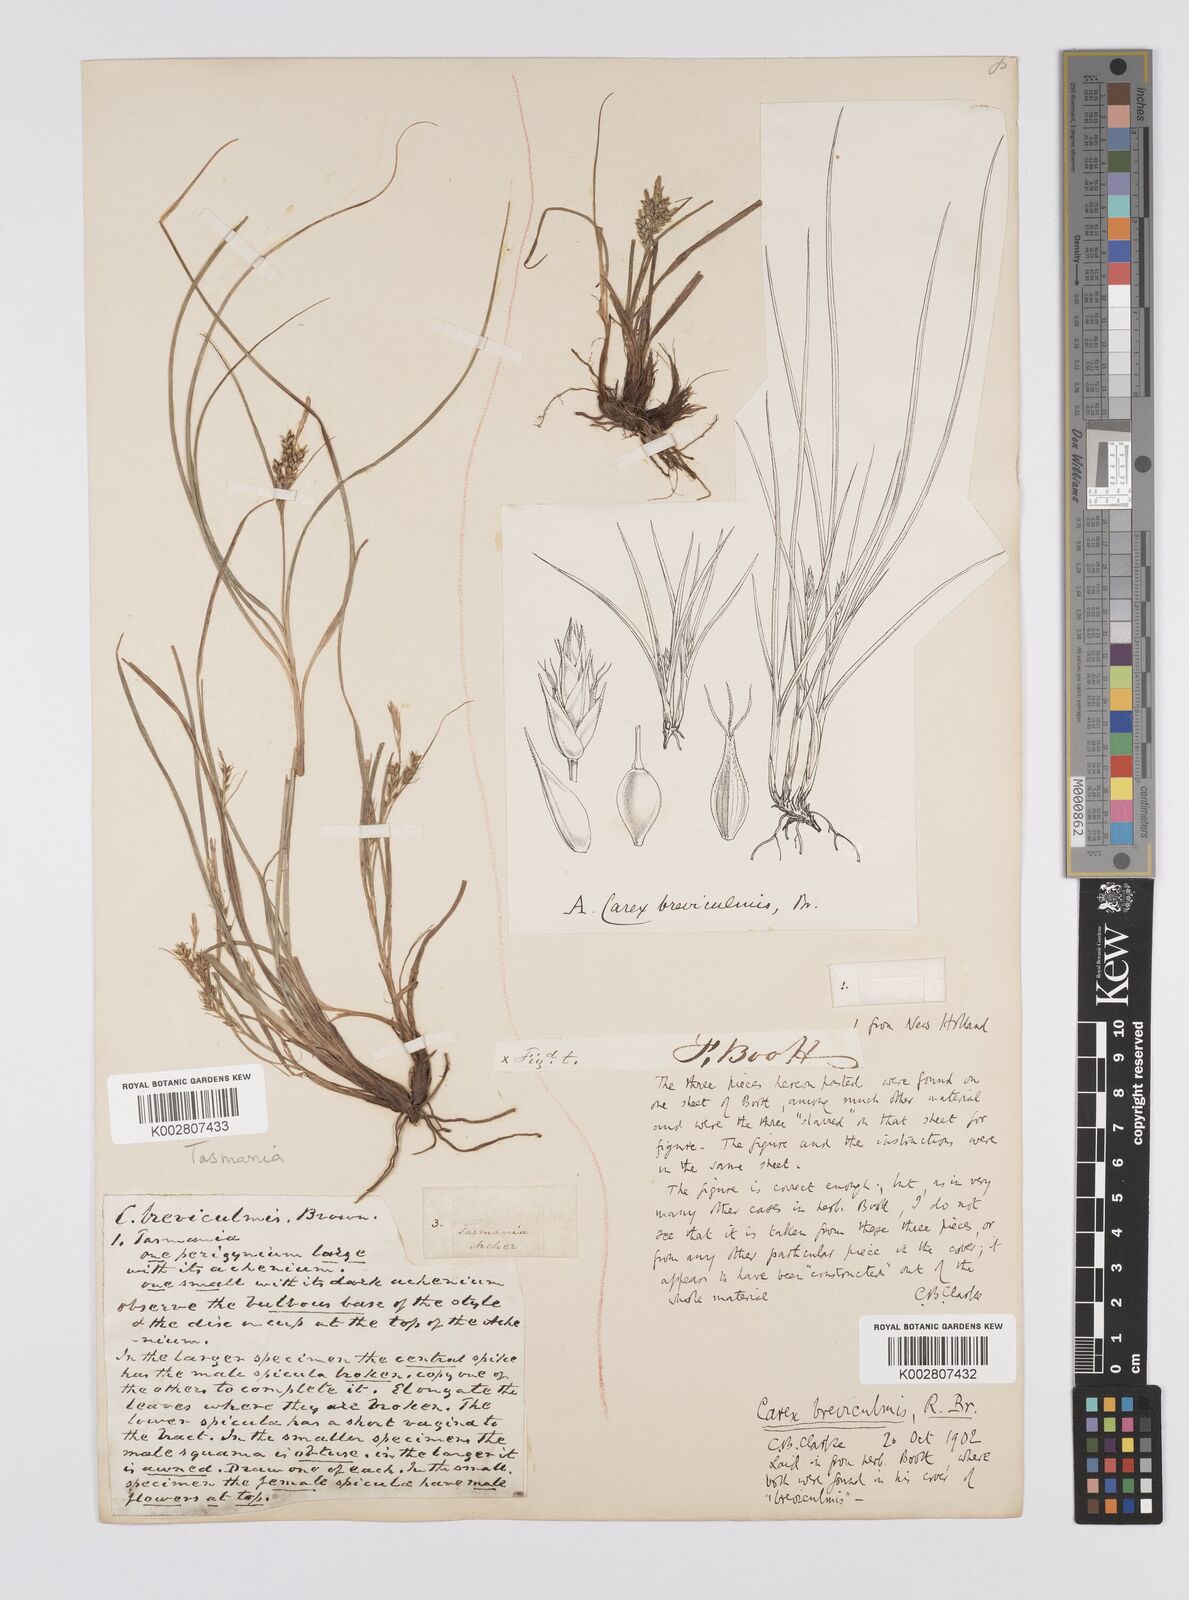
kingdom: Plantae
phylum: Tracheophyta
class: Liliopsida
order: Poales
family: Cyperaceae
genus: Carex
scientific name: Carex breviculmis
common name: Asian shortstem sedge
